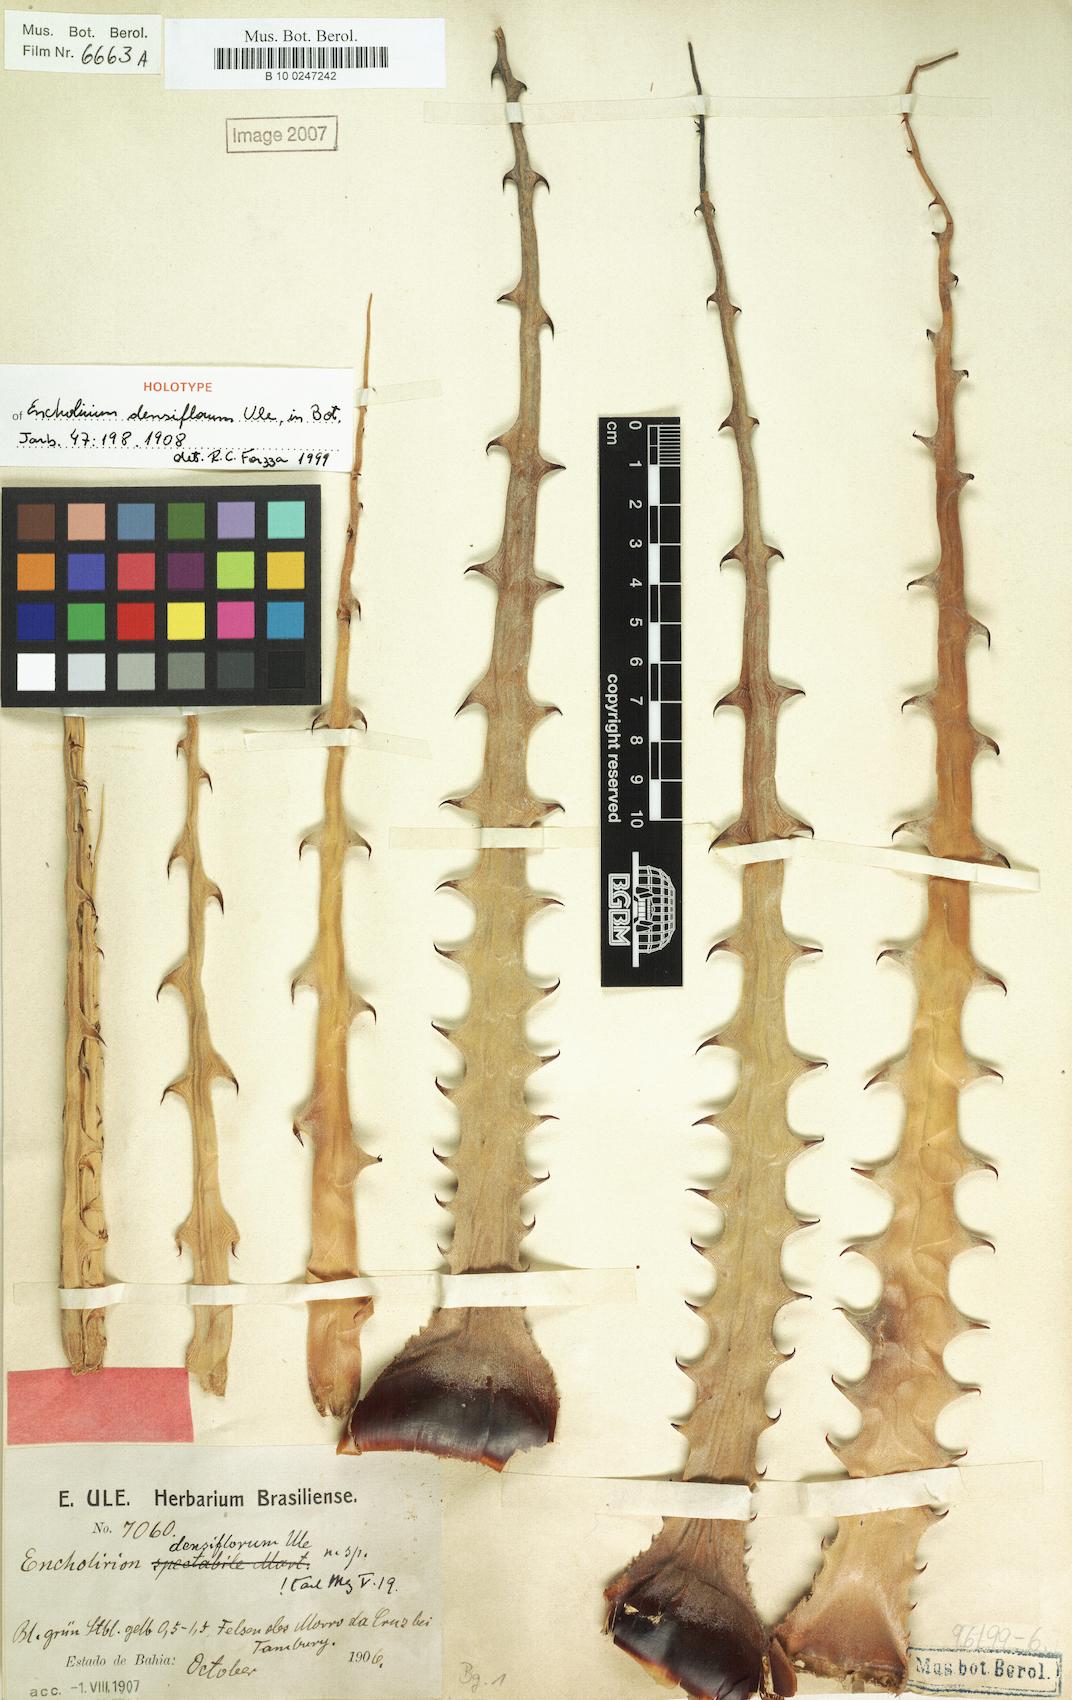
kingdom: Plantae
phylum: Tracheophyta
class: Liliopsida
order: Poales
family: Bromeliaceae
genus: Encholirium
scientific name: Encholirium spectabile
